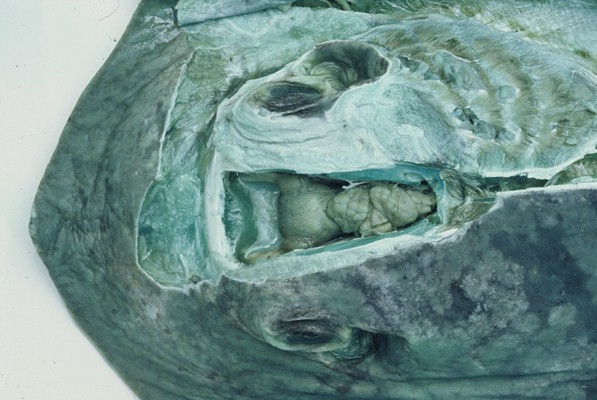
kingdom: Animalia
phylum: Chordata
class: Elasmobranchii
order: Myliobatiformes
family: Dasyatidae
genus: Dasyatis
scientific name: Dasyatis pastinaca
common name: Common stingray
